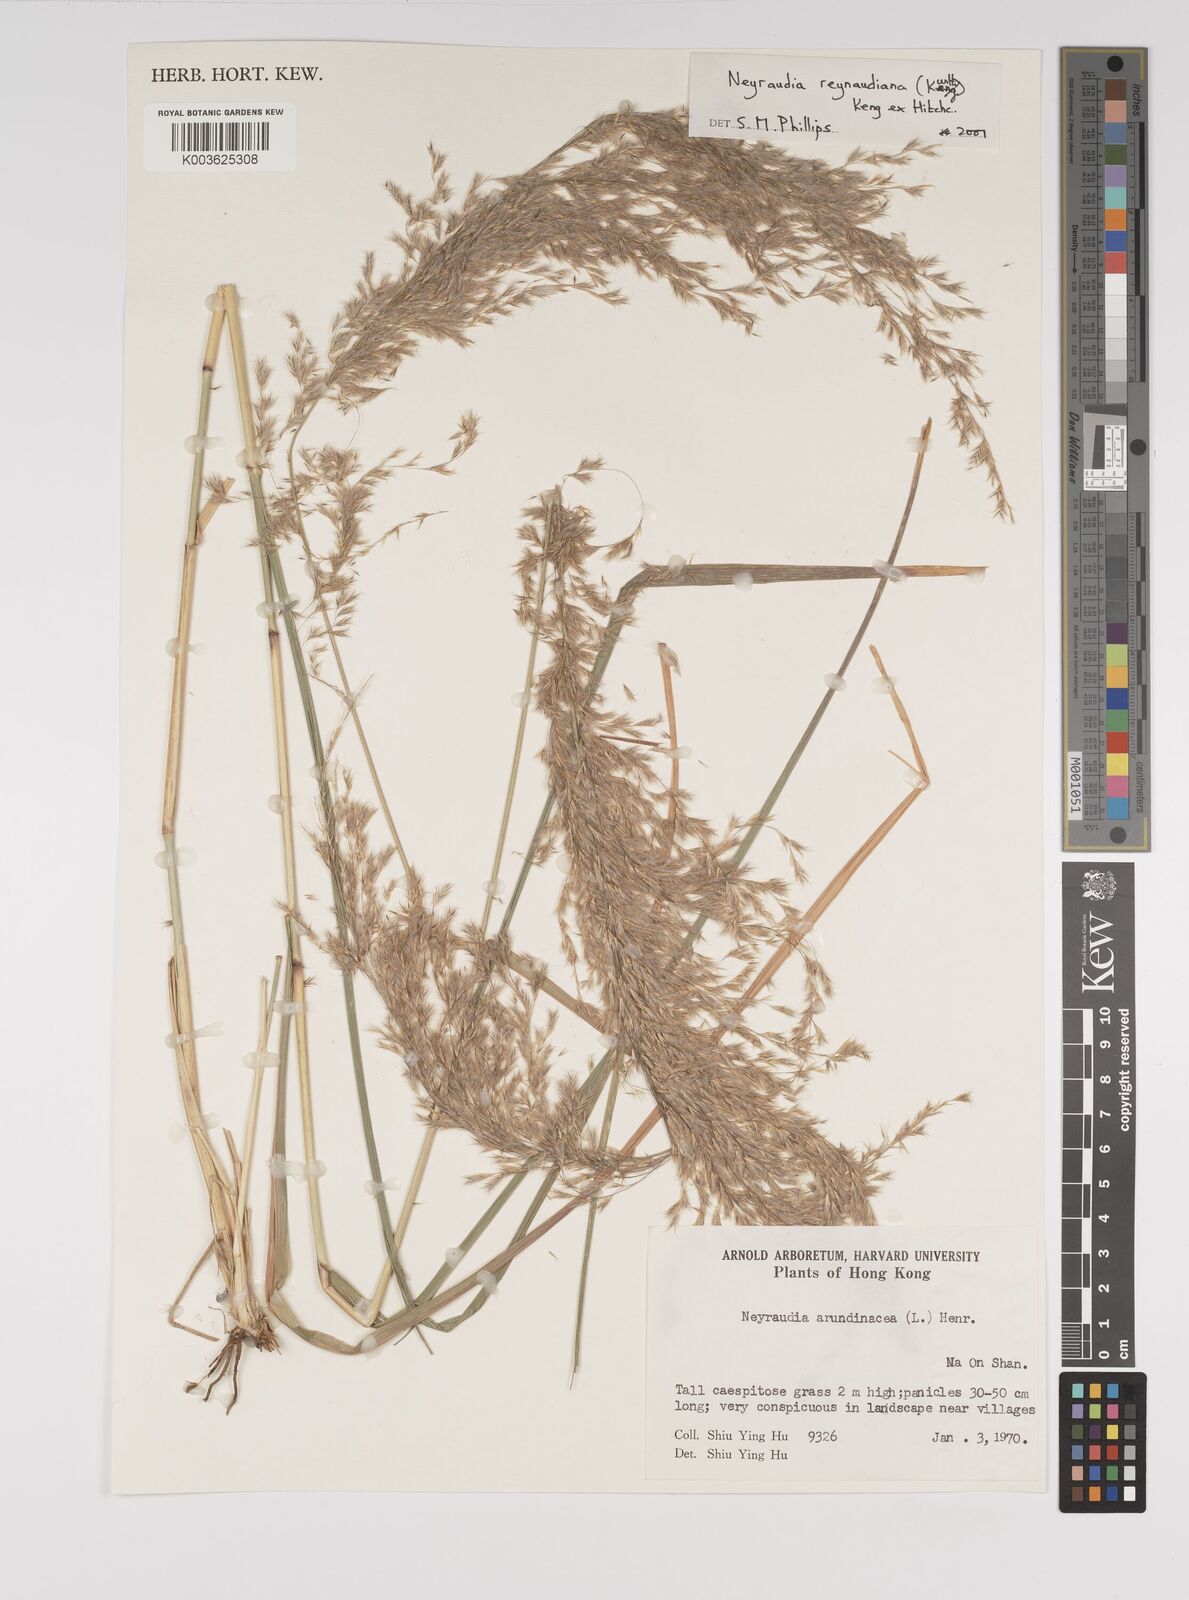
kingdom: Plantae
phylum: Tracheophyta
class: Liliopsida
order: Poales
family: Poaceae
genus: Neyraudia
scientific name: Neyraudia reynaudiana
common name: Silkreed
